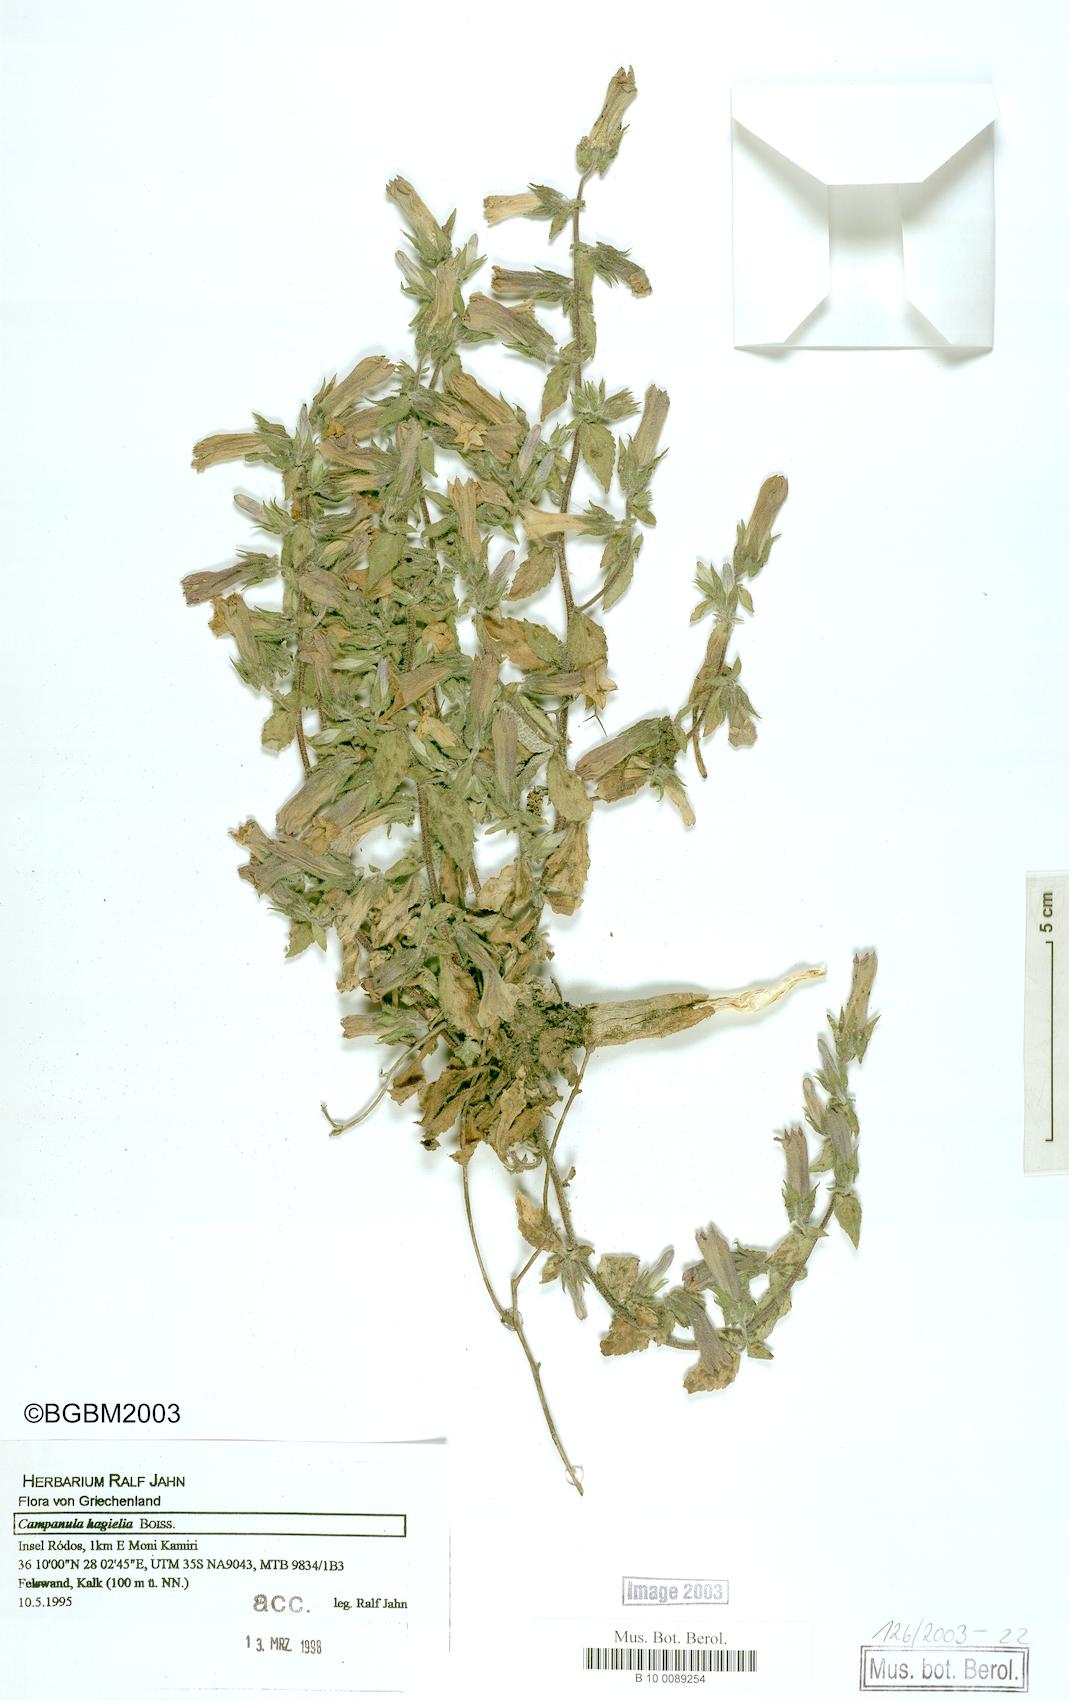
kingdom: Plantae
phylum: Tracheophyta
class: Magnoliopsida
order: Asterales
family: Campanulaceae
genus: Campanula
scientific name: Campanula hagielia
